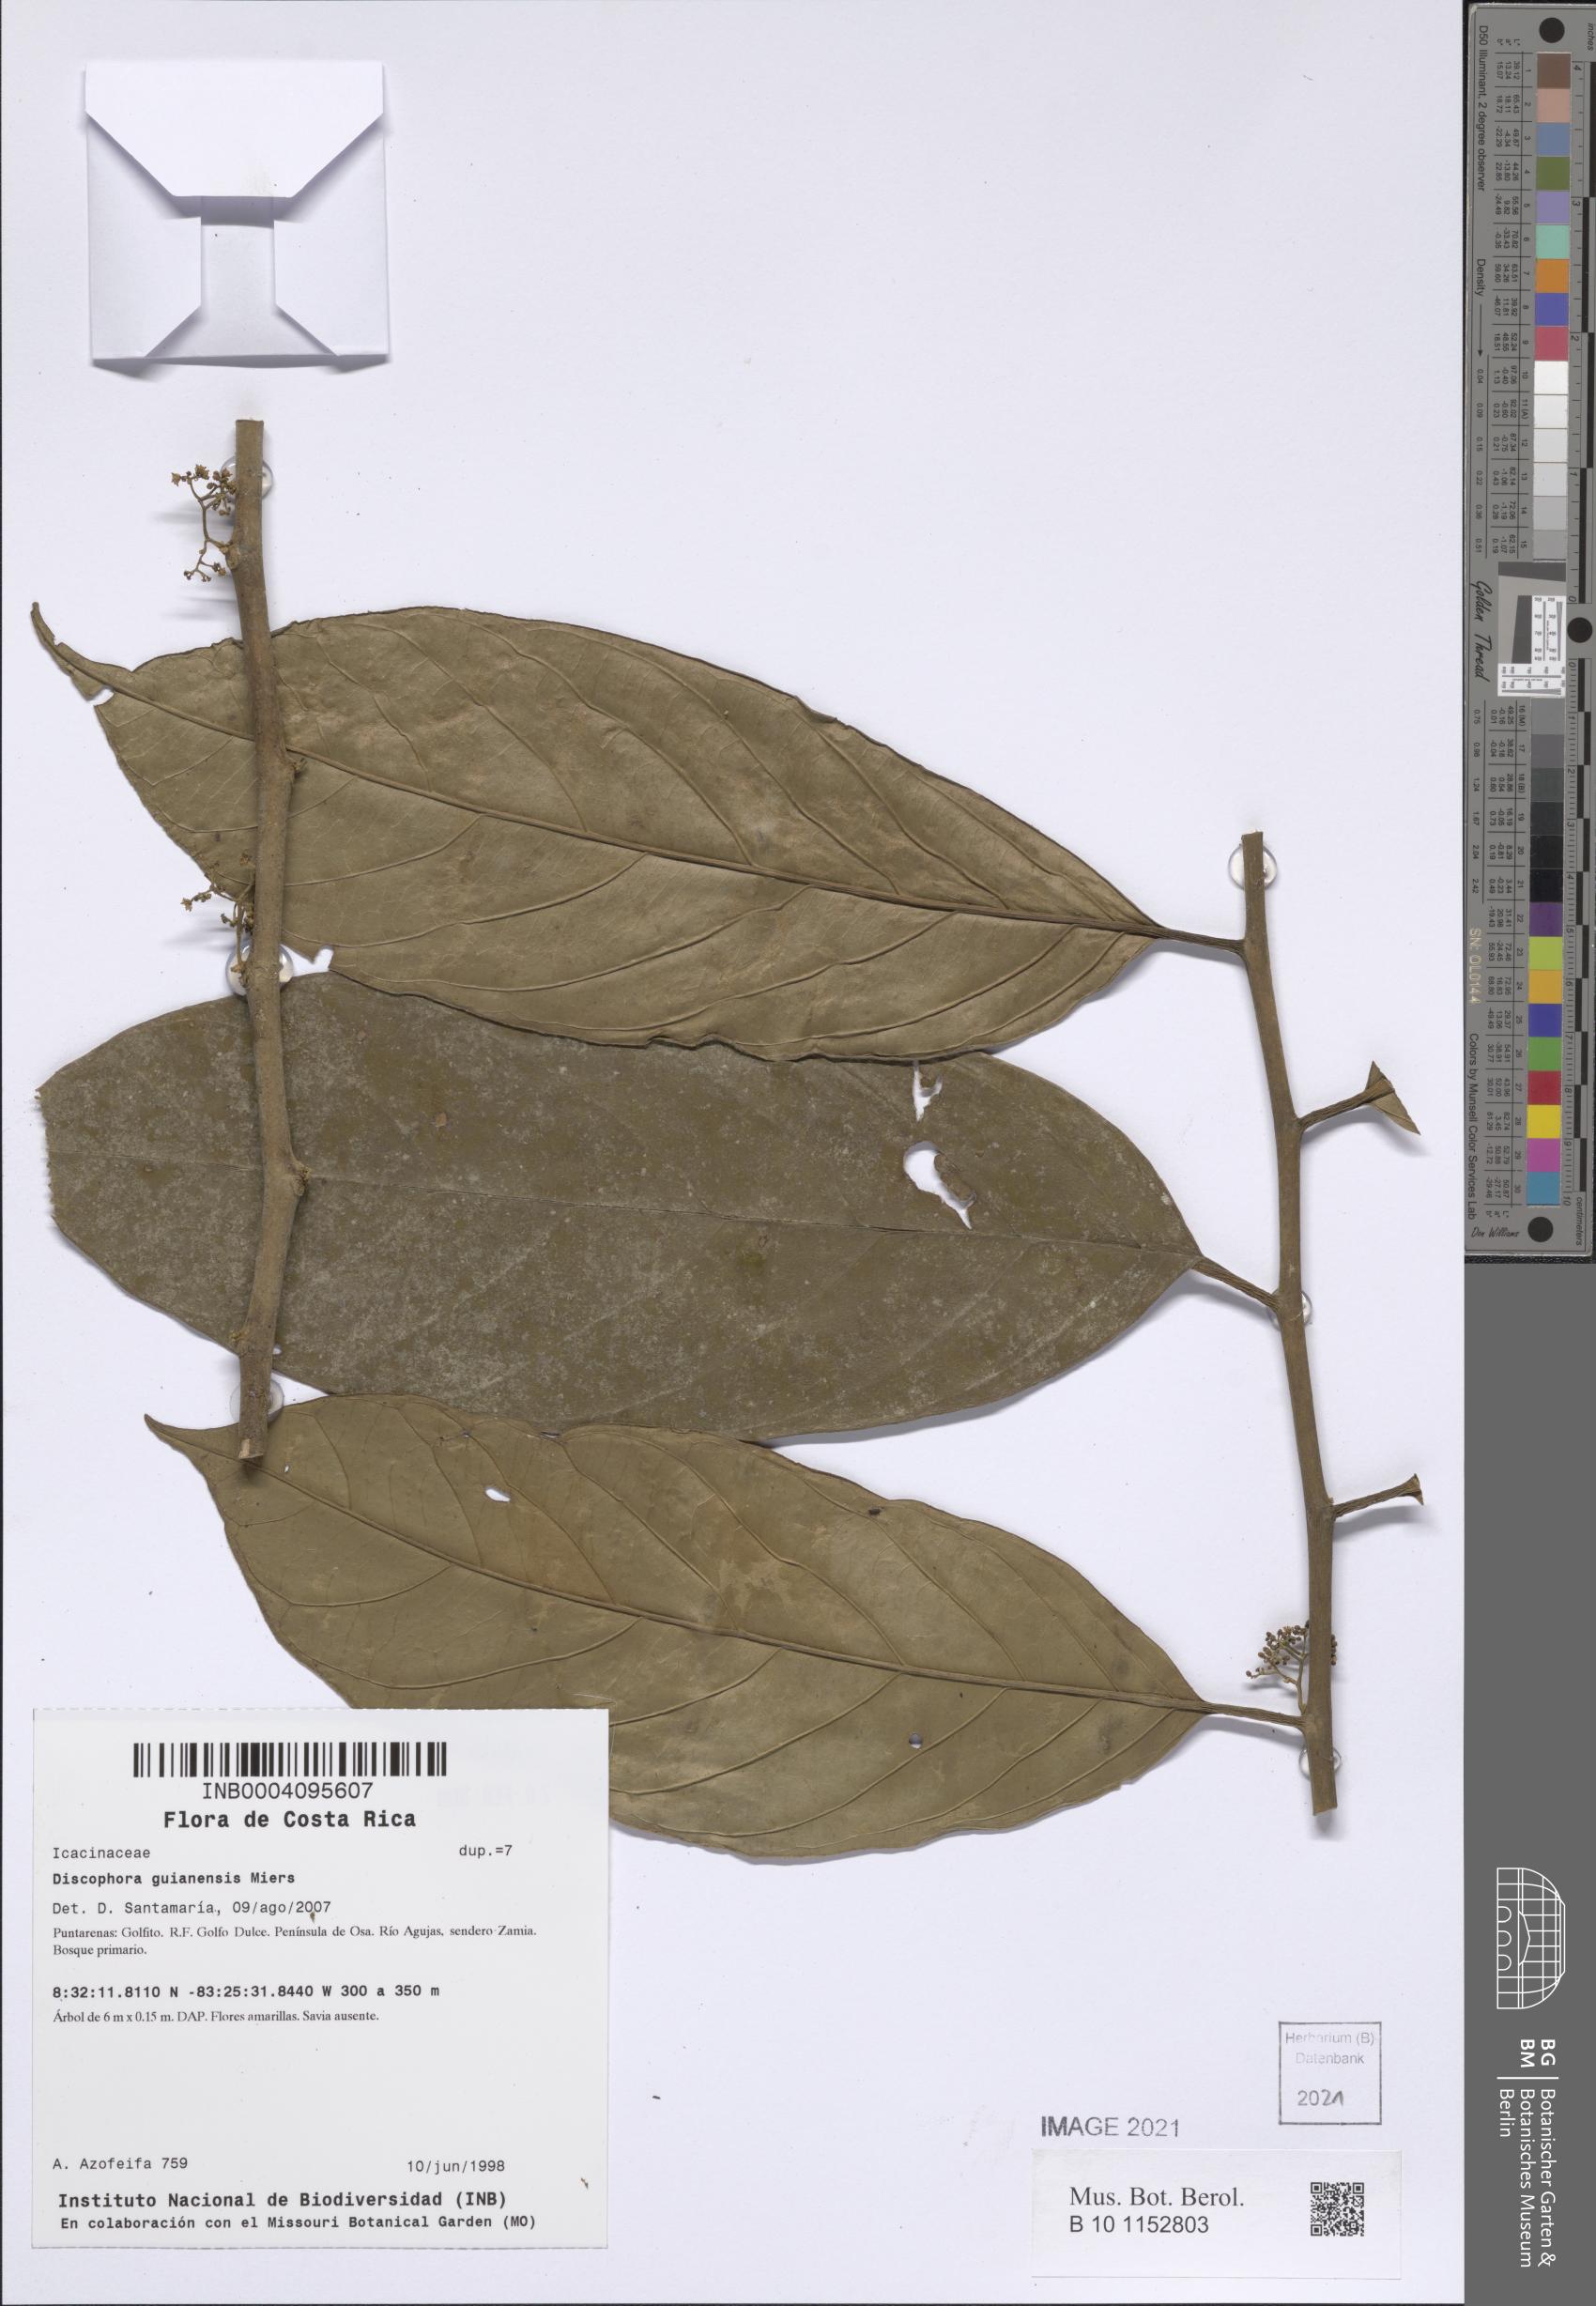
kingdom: Plantae
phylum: Tracheophyta
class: Magnoliopsida
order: Cardiopteridales
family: Stemonuraceae
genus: Discophora
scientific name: Discophora guianensis
